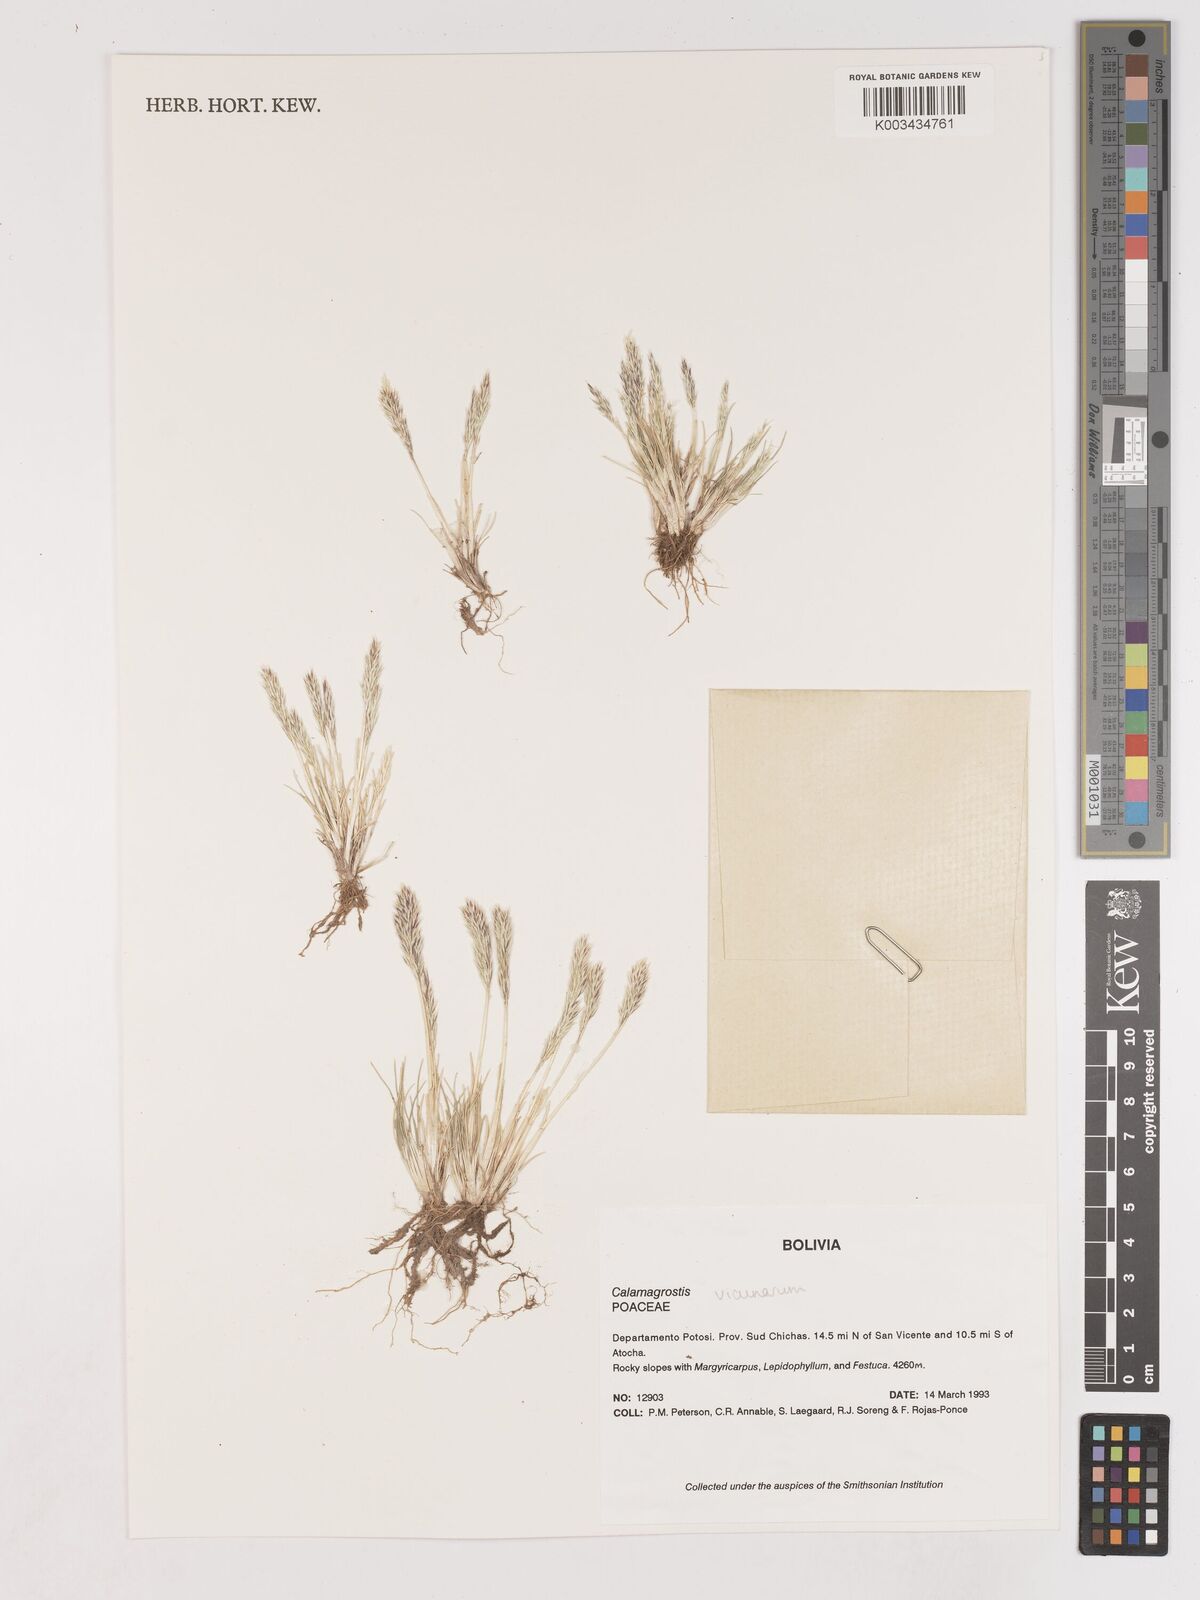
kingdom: Plantae
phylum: Tracheophyta
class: Liliopsida
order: Poales
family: Poaceae
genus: Cinnagrostis
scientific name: Cinnagrostis vicunarum
